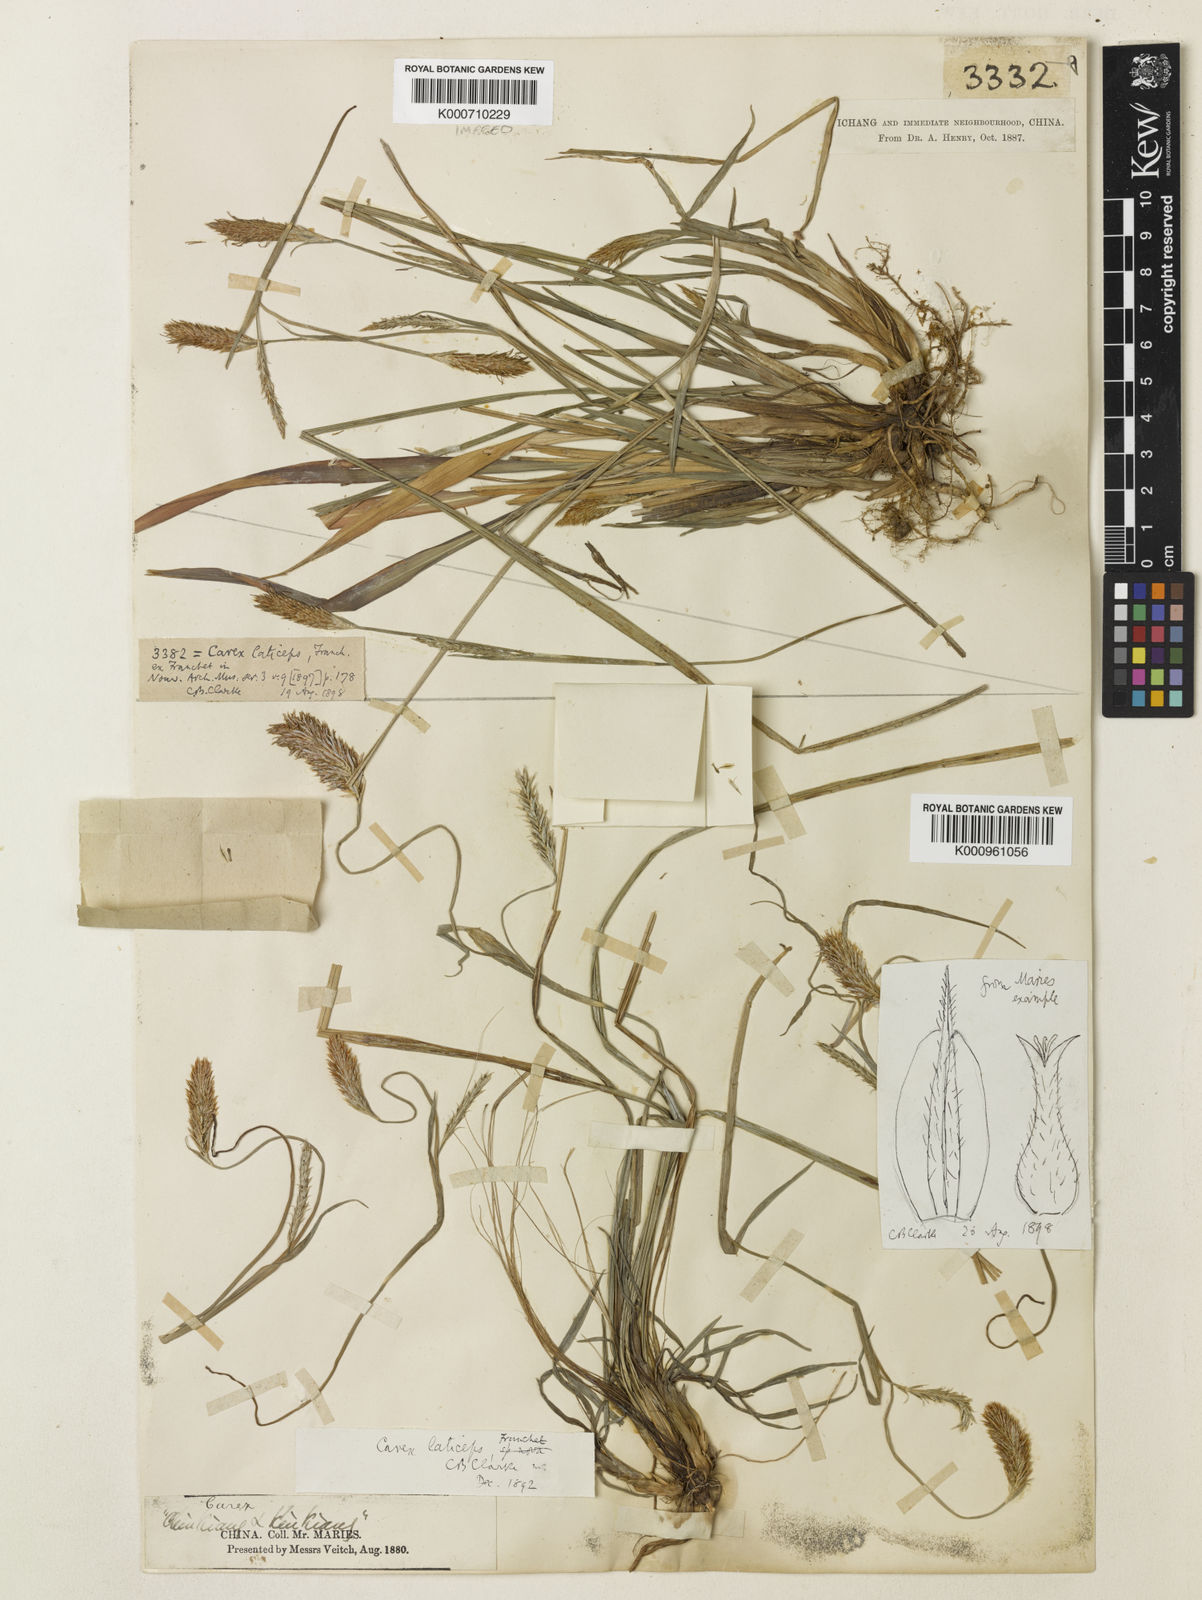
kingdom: Plantae
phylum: Tracheophyta
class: Liliopsida
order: Poales
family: Cyperaceae
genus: Carex
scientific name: Carex sampsonii
